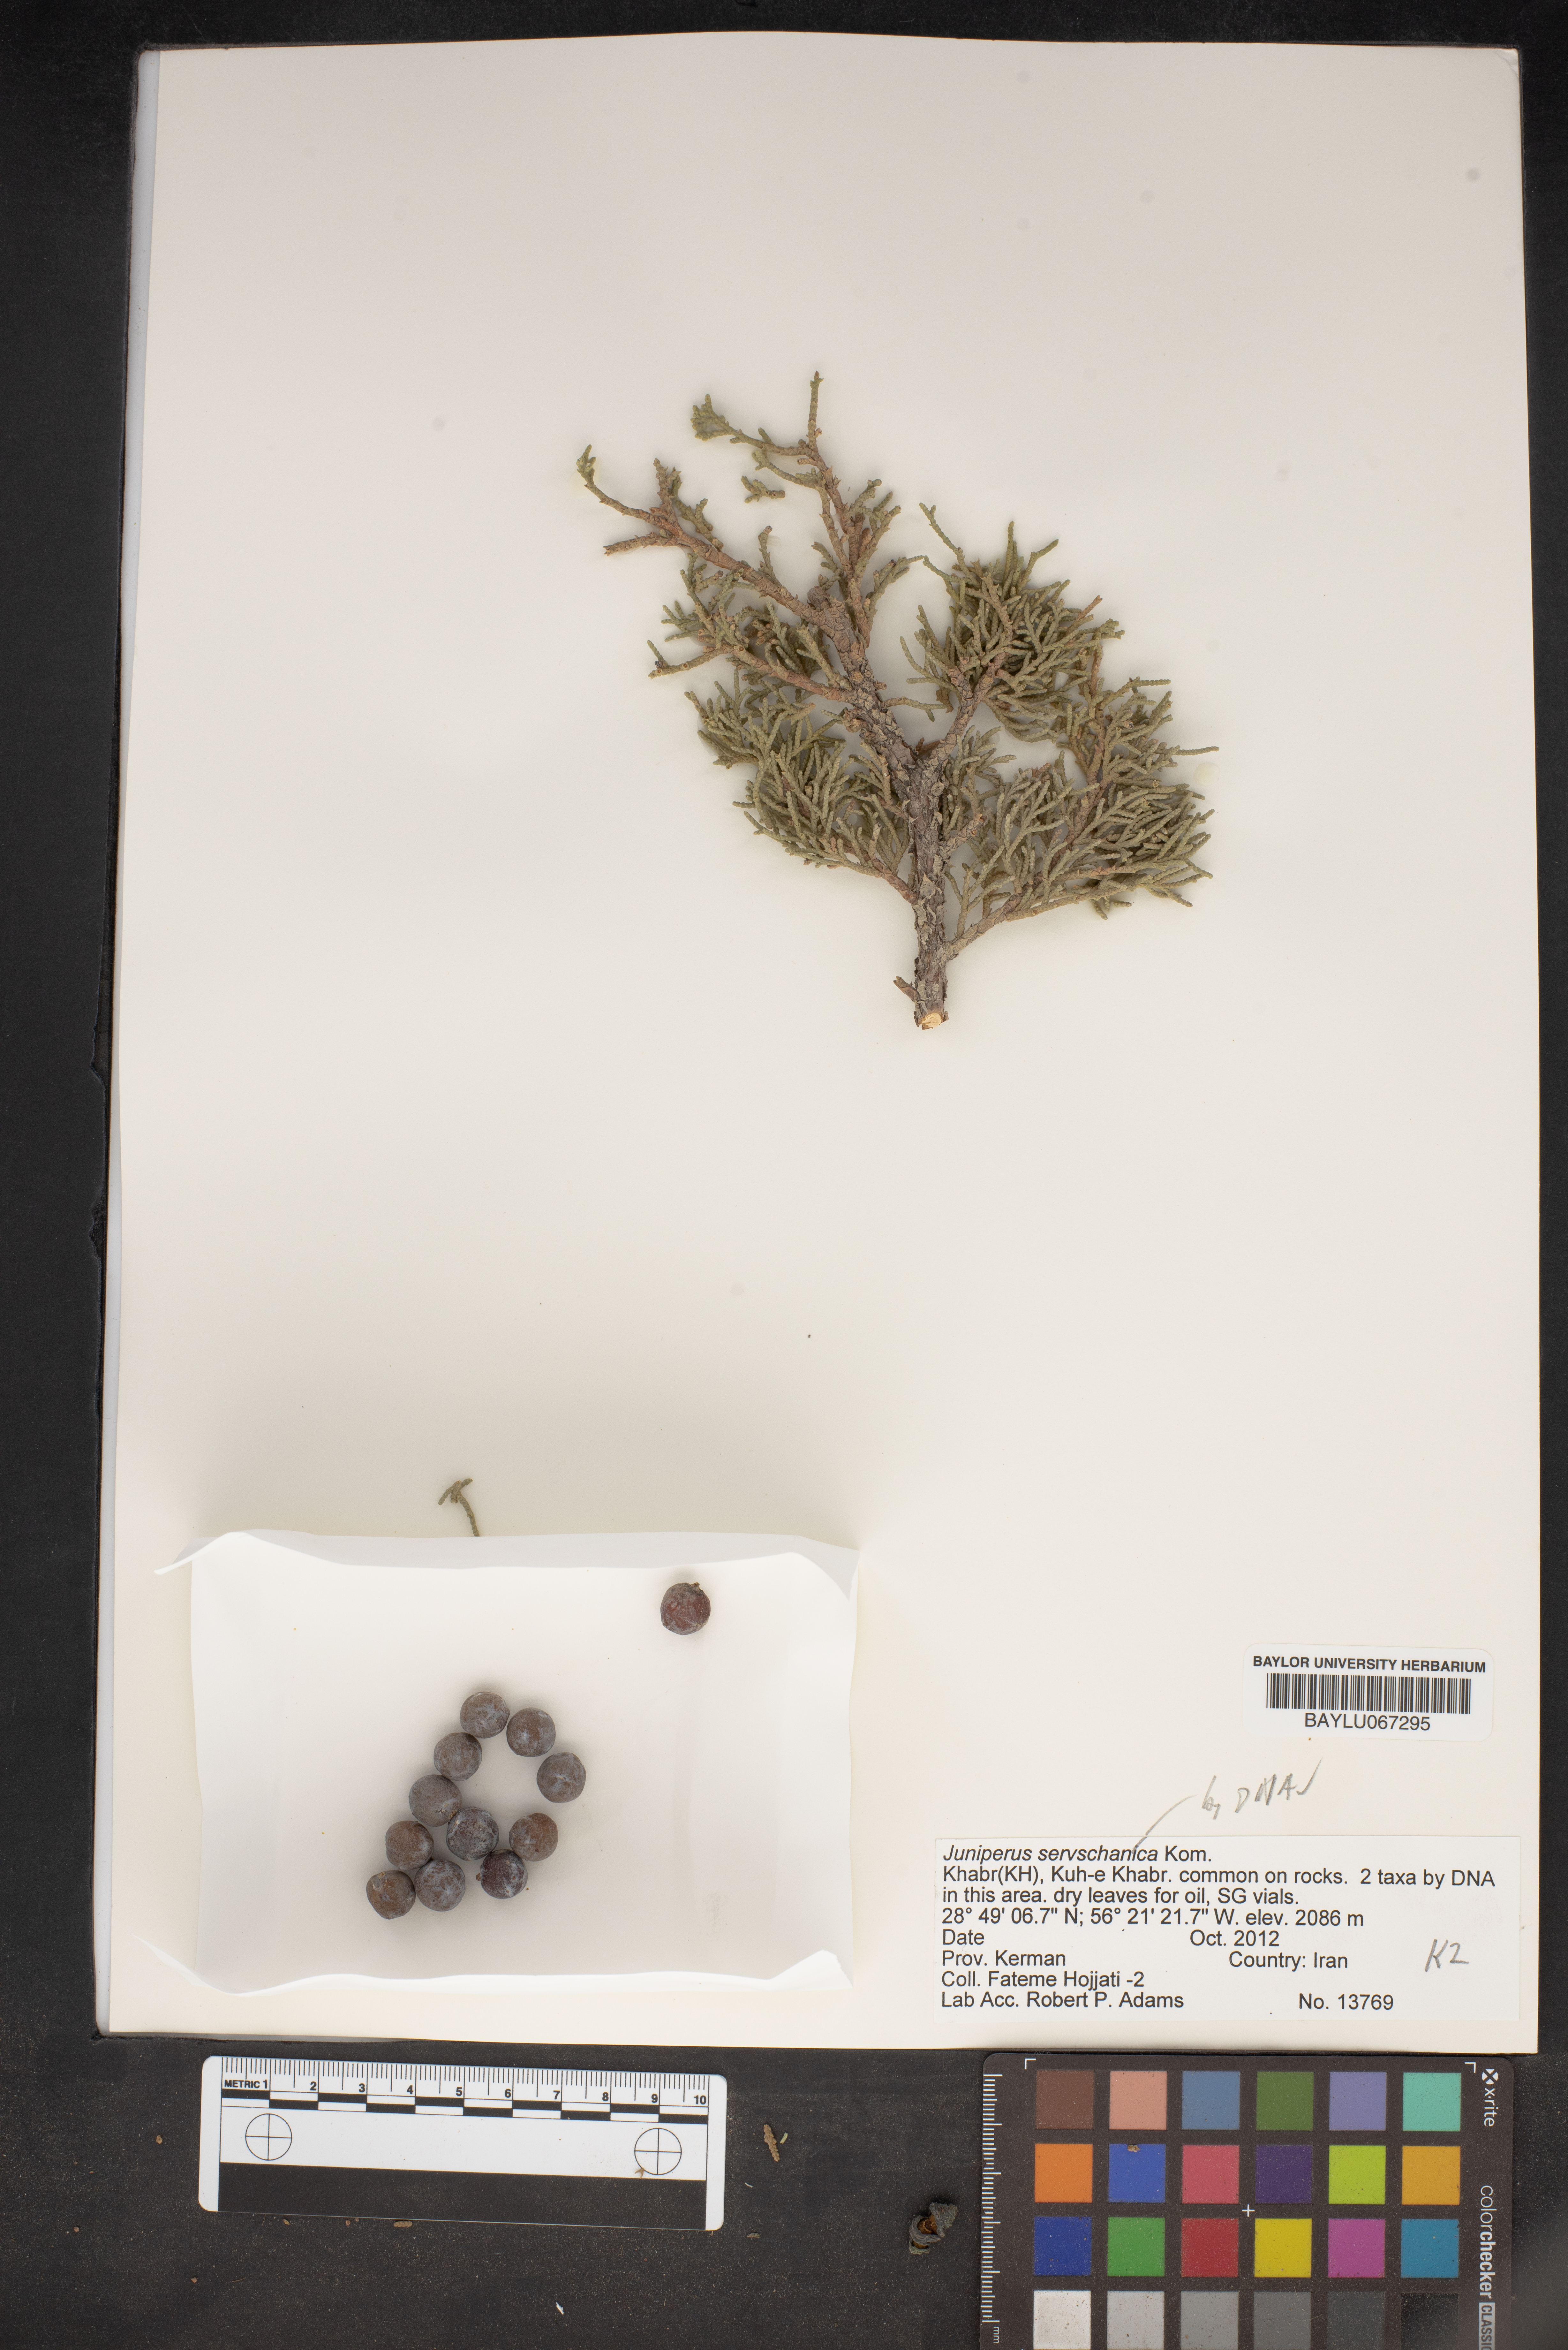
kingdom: Plantae
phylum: Tracheophyta
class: Pinopsida
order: Pinales
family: Cupressaceae
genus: Juniperus
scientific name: Juniperus excelsa
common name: Crimean juniper
